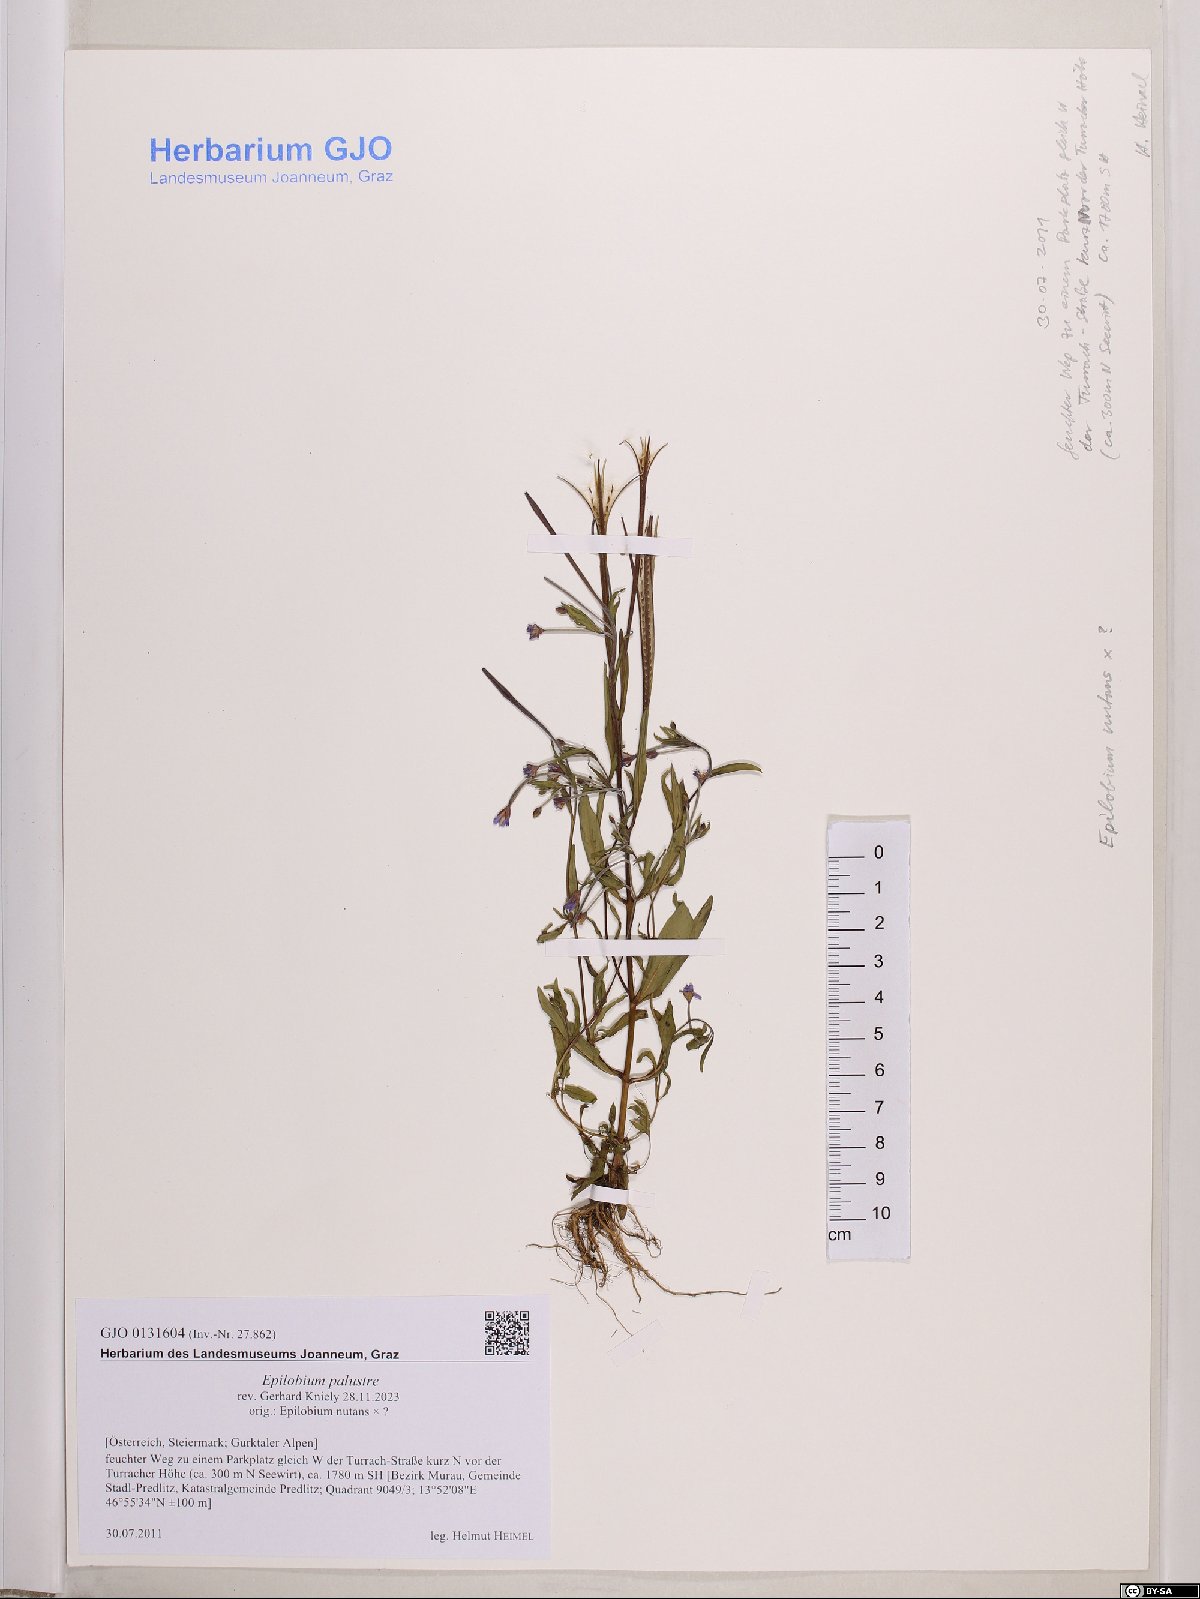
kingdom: Plantae
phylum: Tracheophyta
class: Magnoliopsida
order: Myrtales
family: Onagraceae
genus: Epilobium
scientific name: Epilobium palustre
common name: Marsh willowherb
